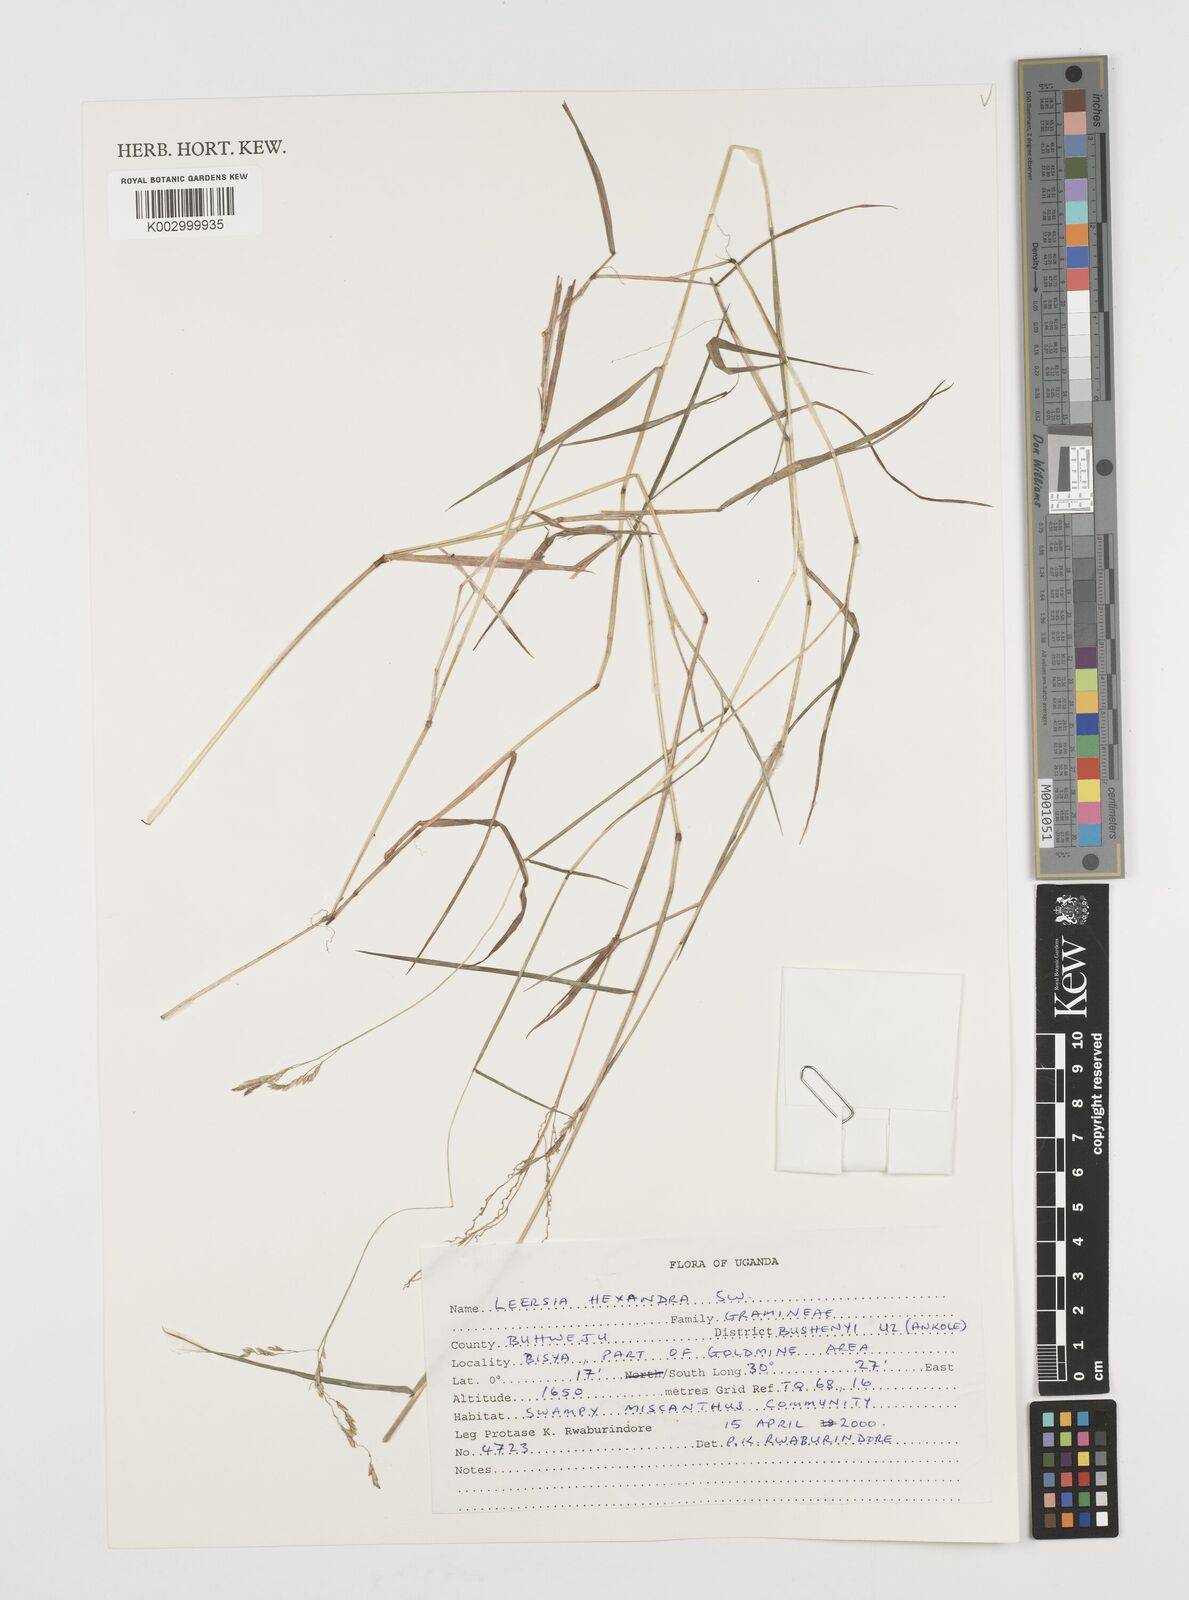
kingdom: Plantae
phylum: Tracheophyta
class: Liliopsida
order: Poales
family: Poaceae
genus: Leersia
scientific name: Leersia hexandra
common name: Southern cut grass
